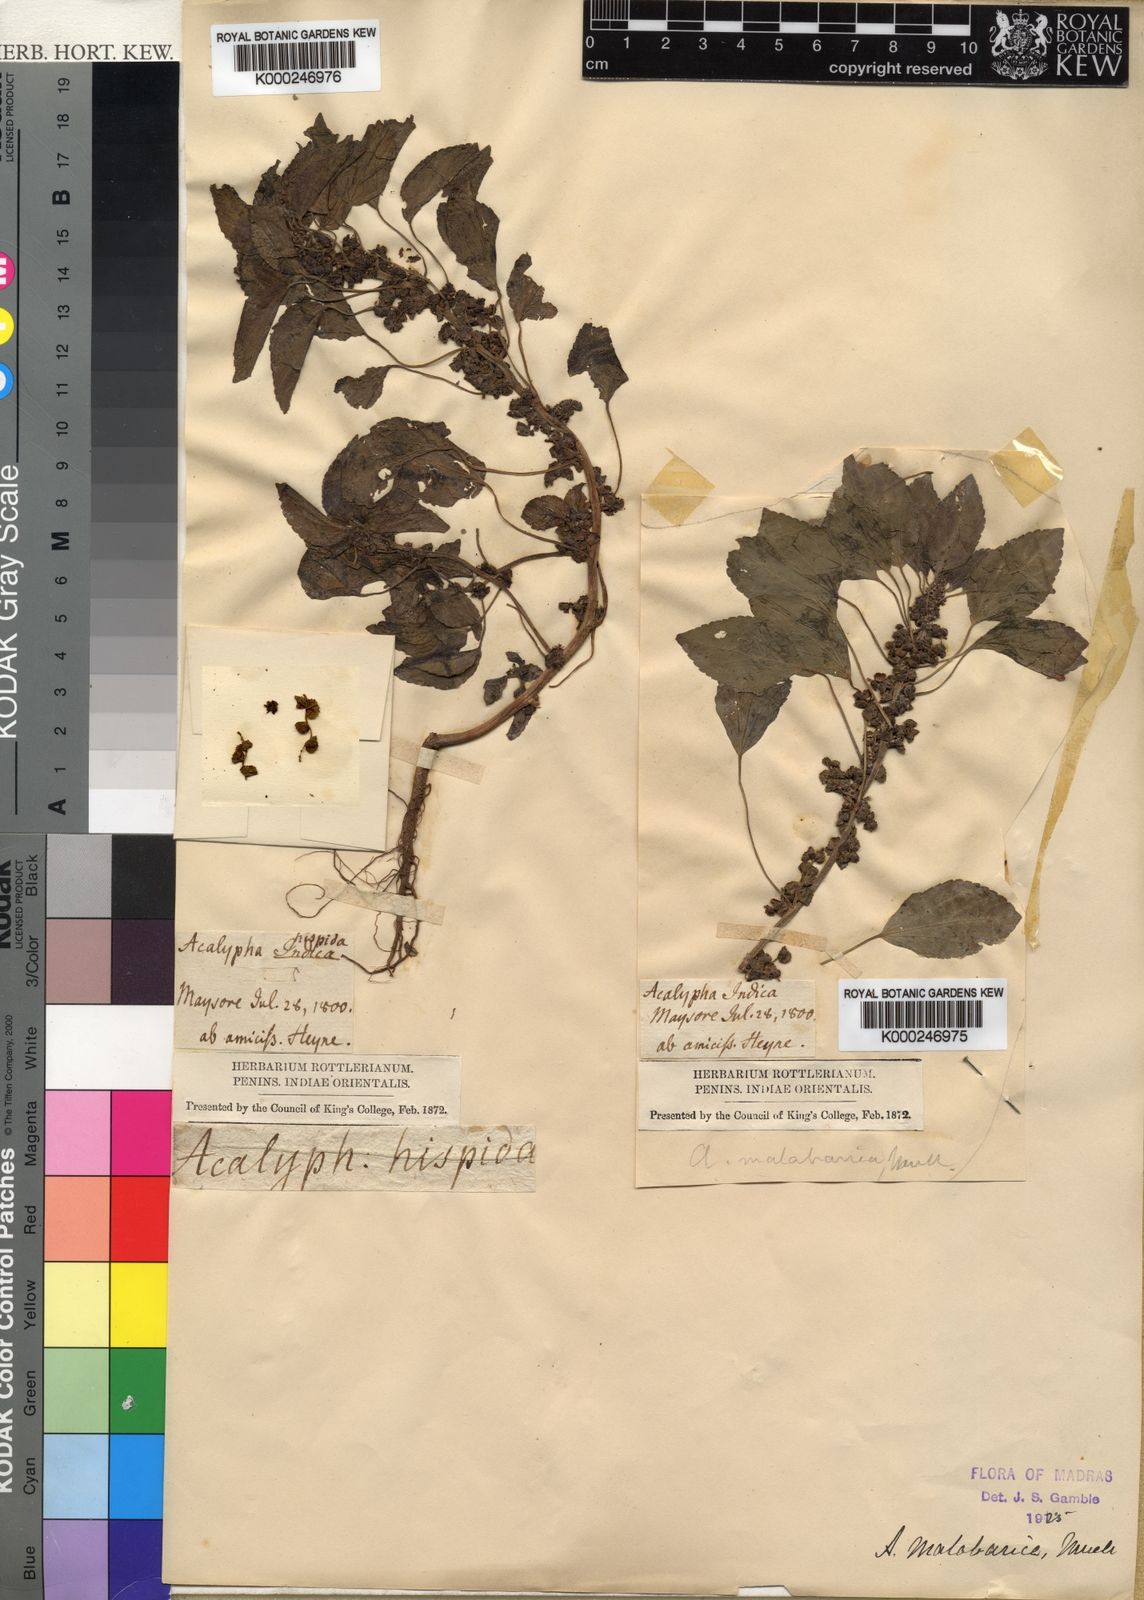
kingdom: Plantae
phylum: Tracheophyta
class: Magnoliopsida
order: Malpighiales
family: Euphorbiaceae
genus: Acalypha
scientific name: Acalypha
